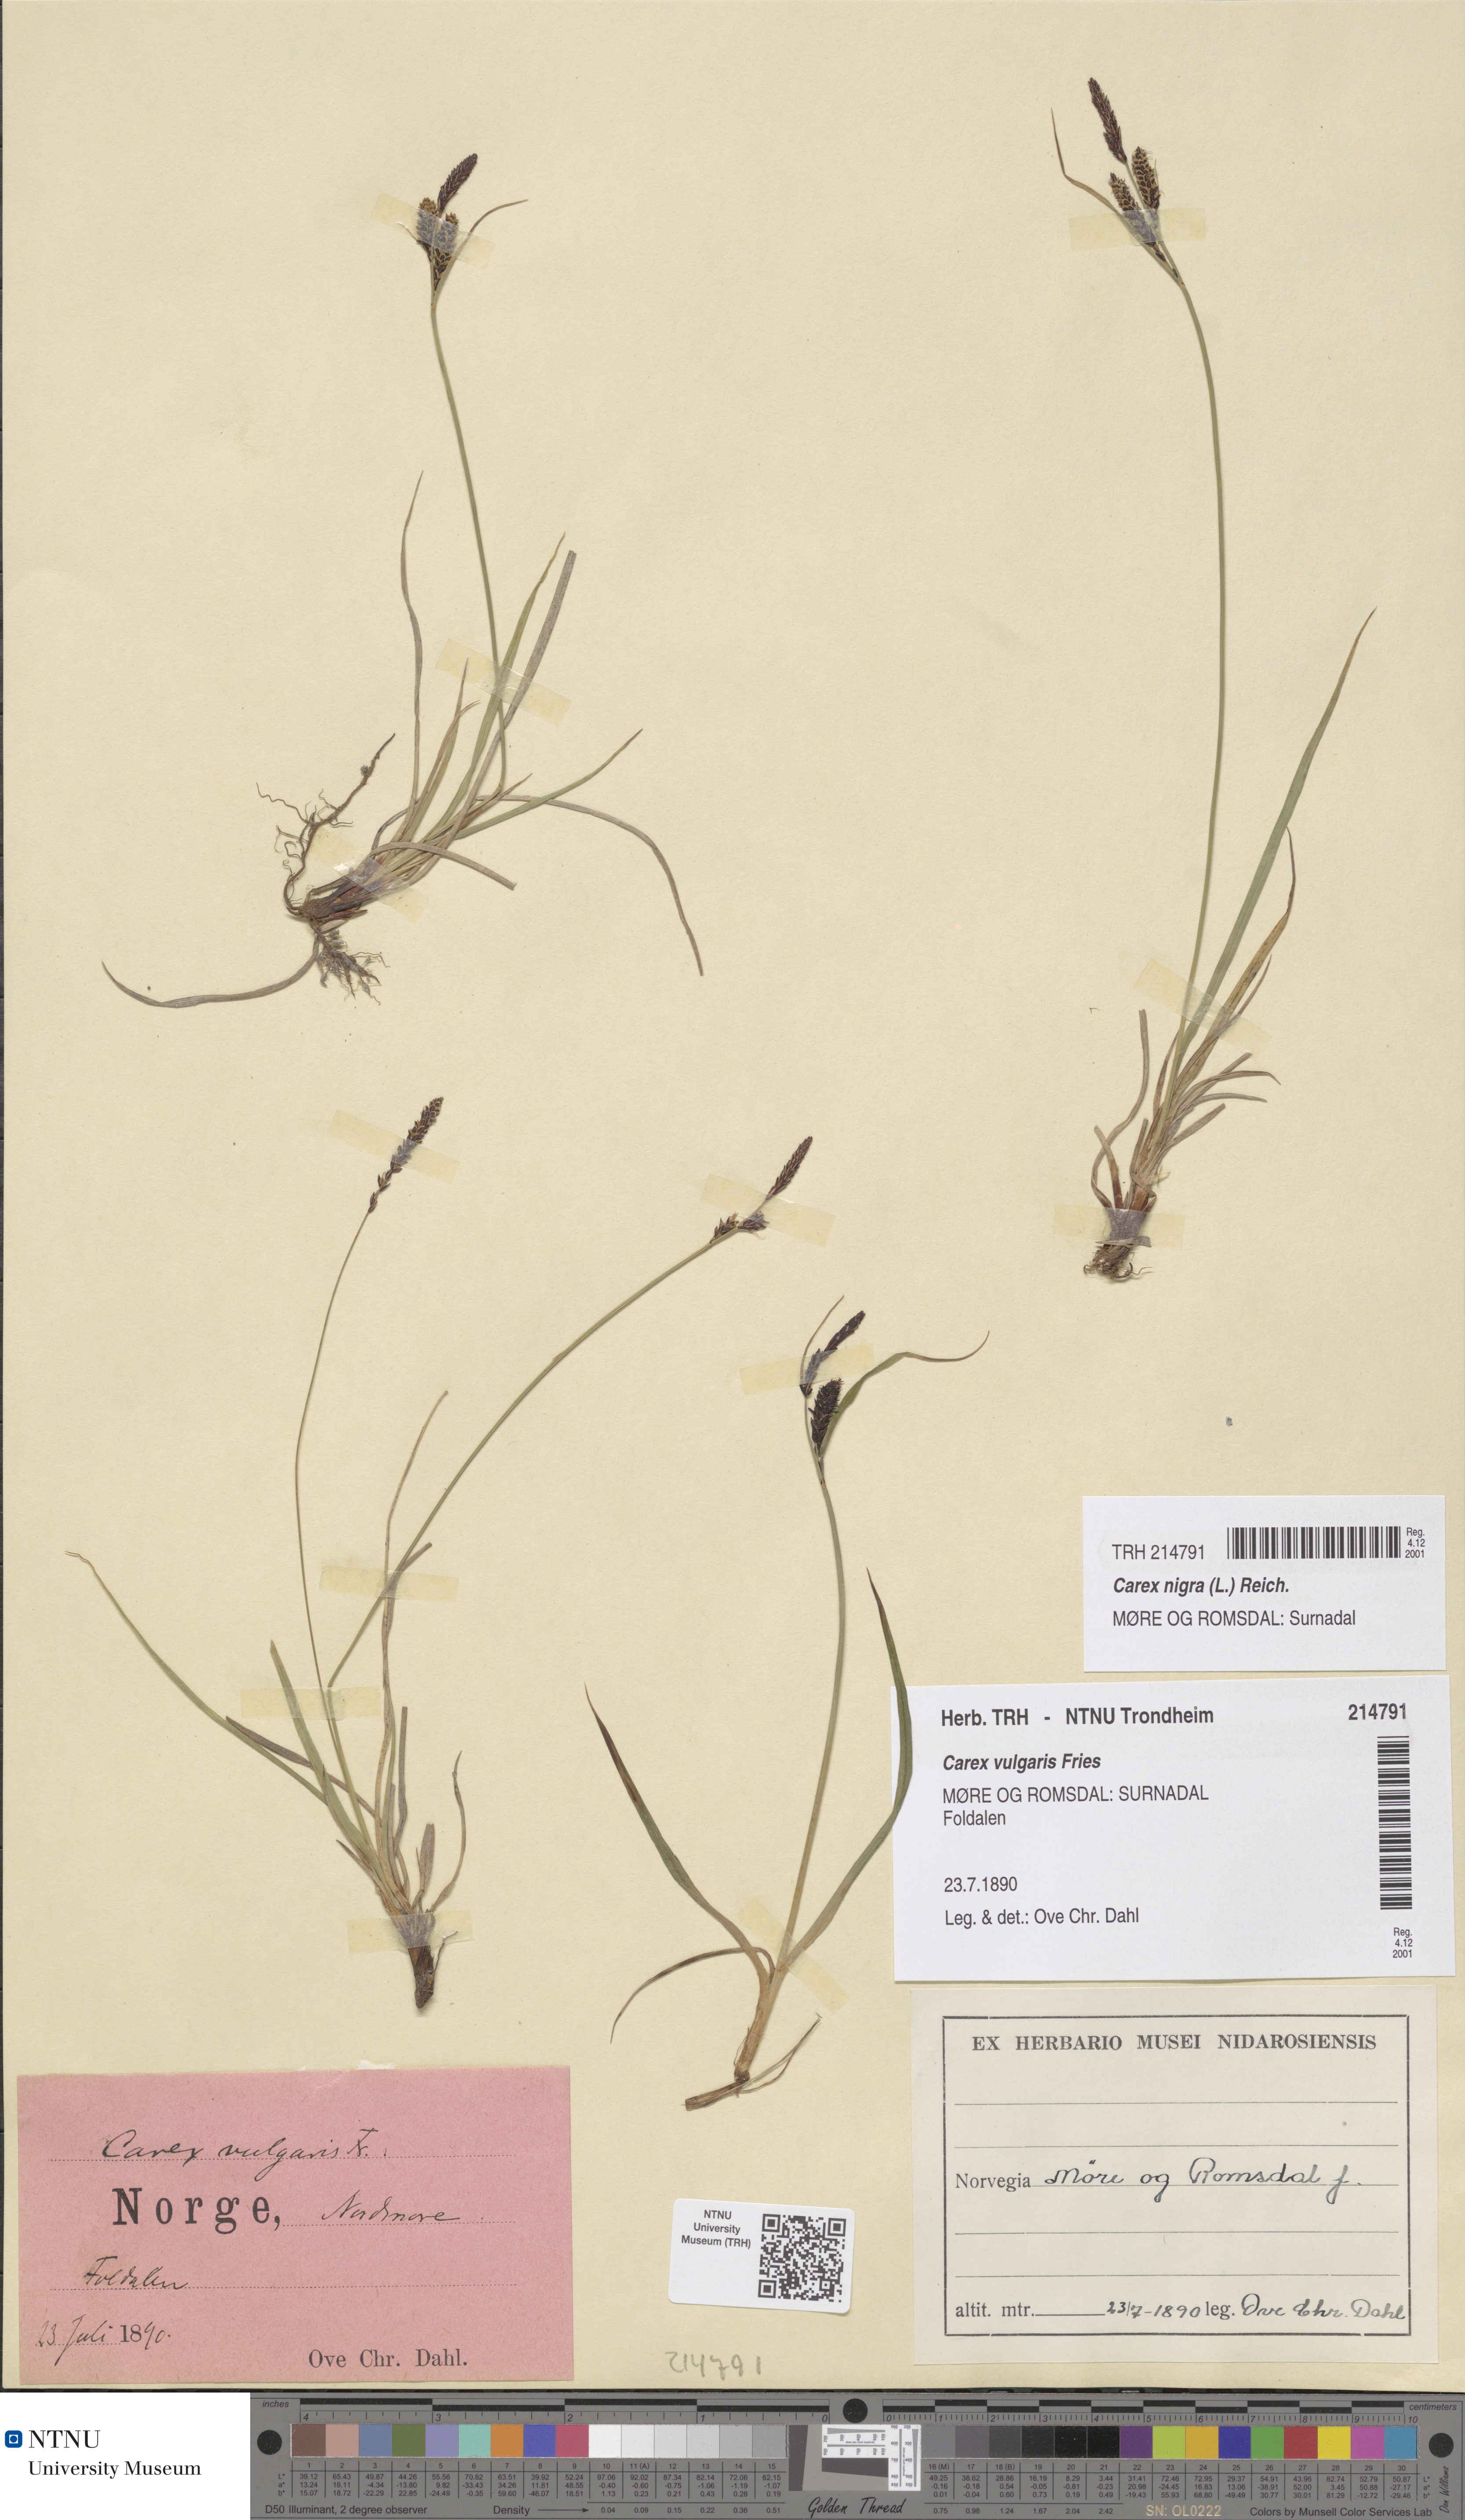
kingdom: Plantae
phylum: Tracheophyta
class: Liliopsida
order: Poales
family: Cyperaceae
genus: Carex
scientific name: Carex nigra
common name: Common sedge
